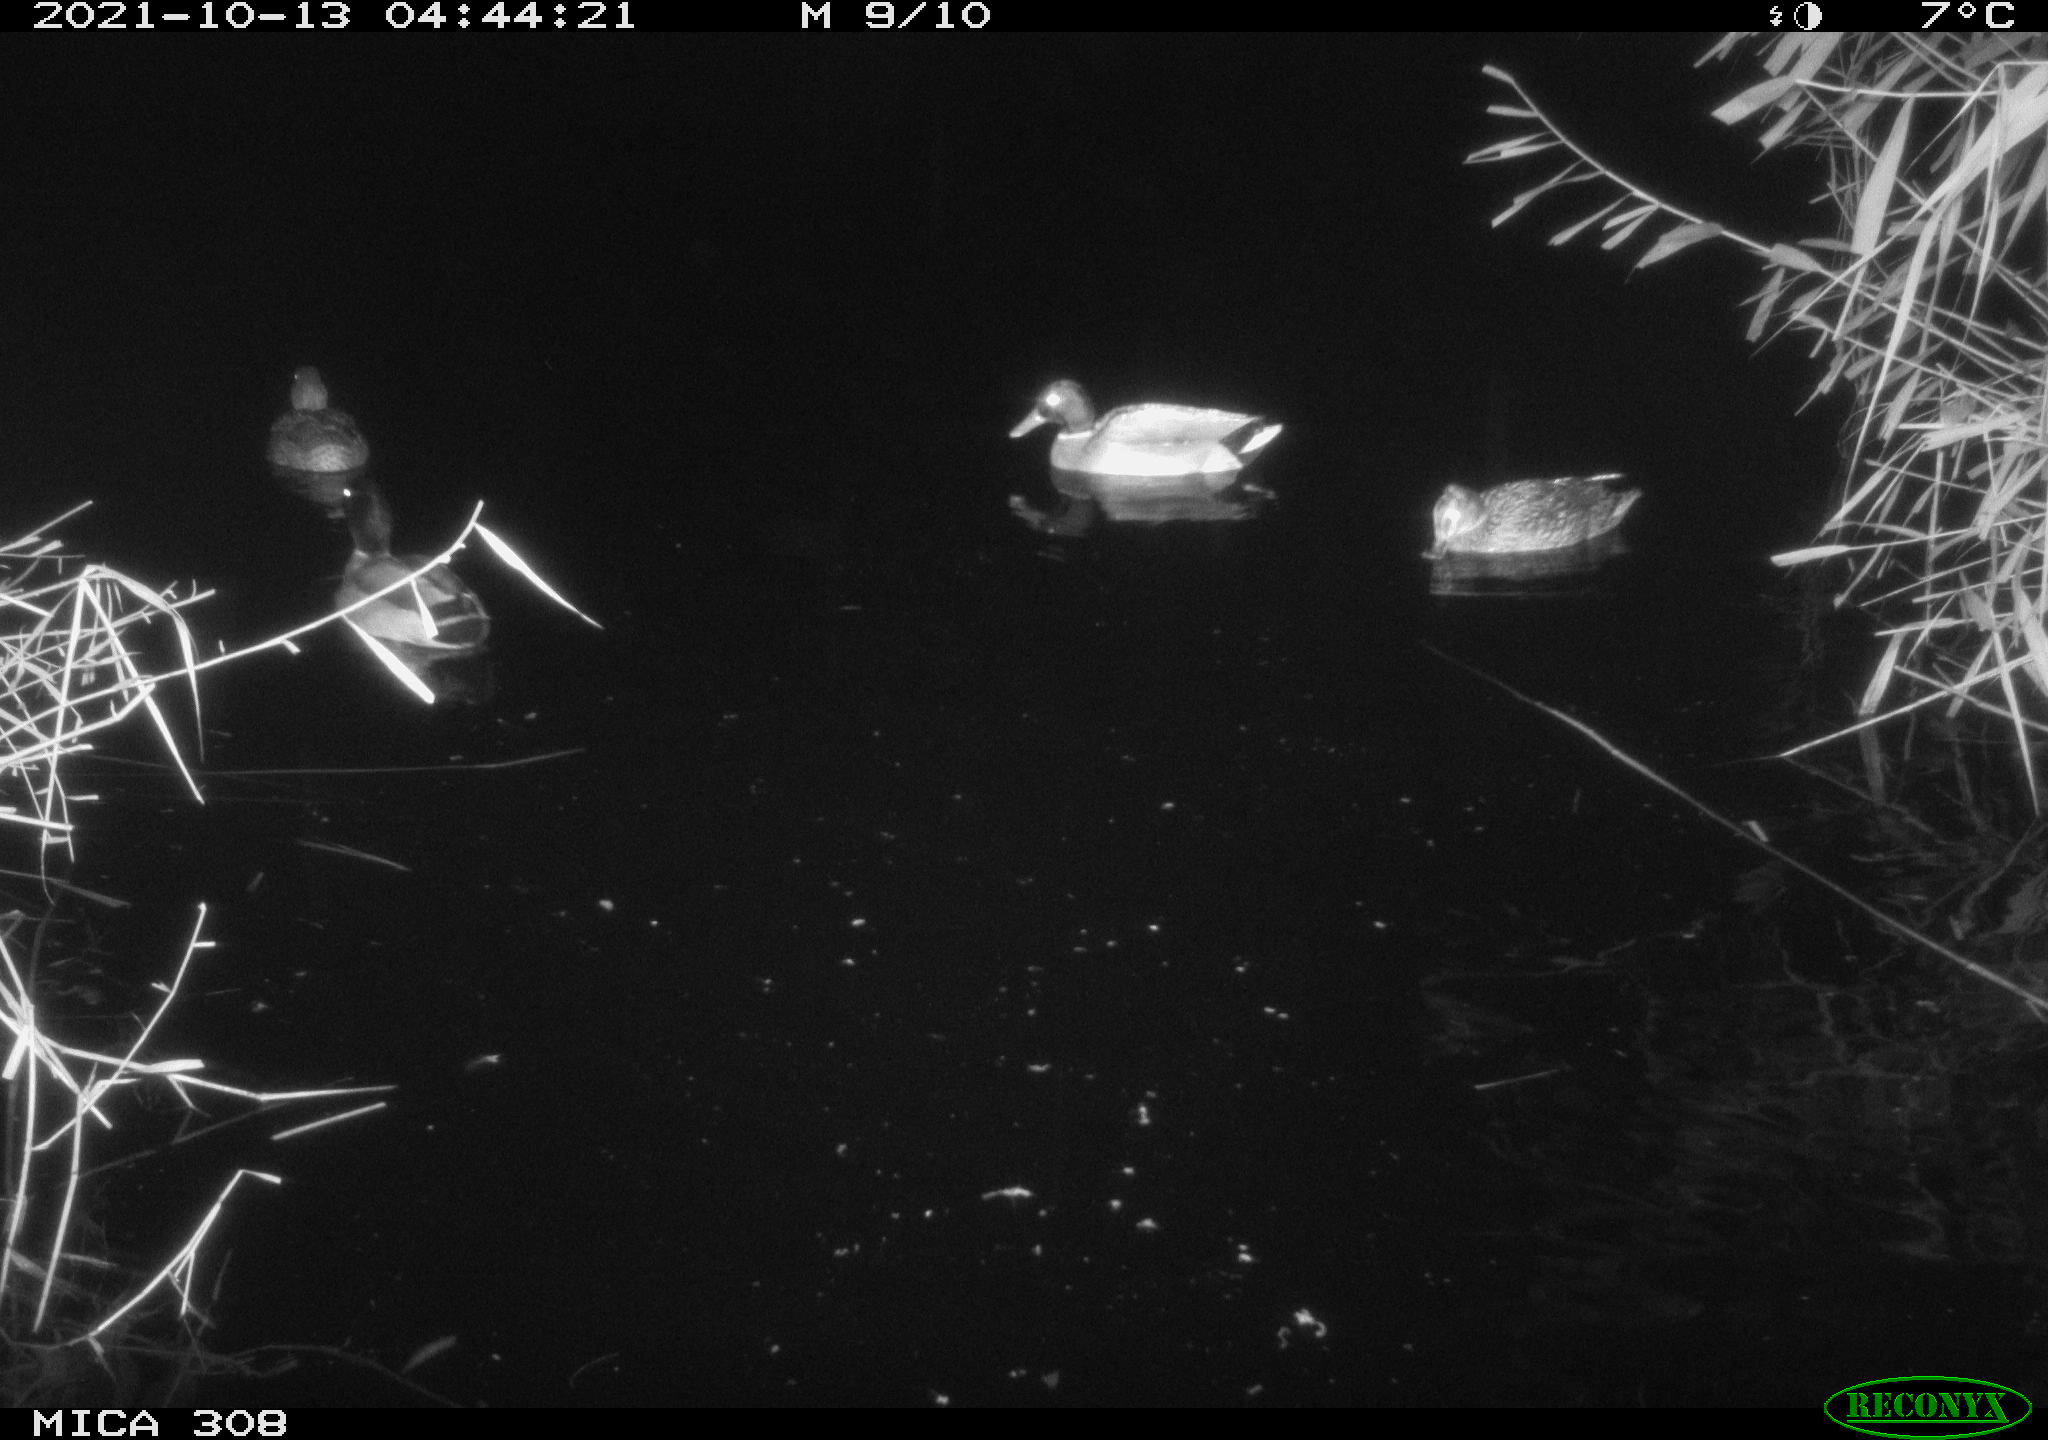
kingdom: Animalia
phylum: Chordata
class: Aves
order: Anseriformes
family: Anatidae
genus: Anas
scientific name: Anas platyrhynchos
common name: Mallard
